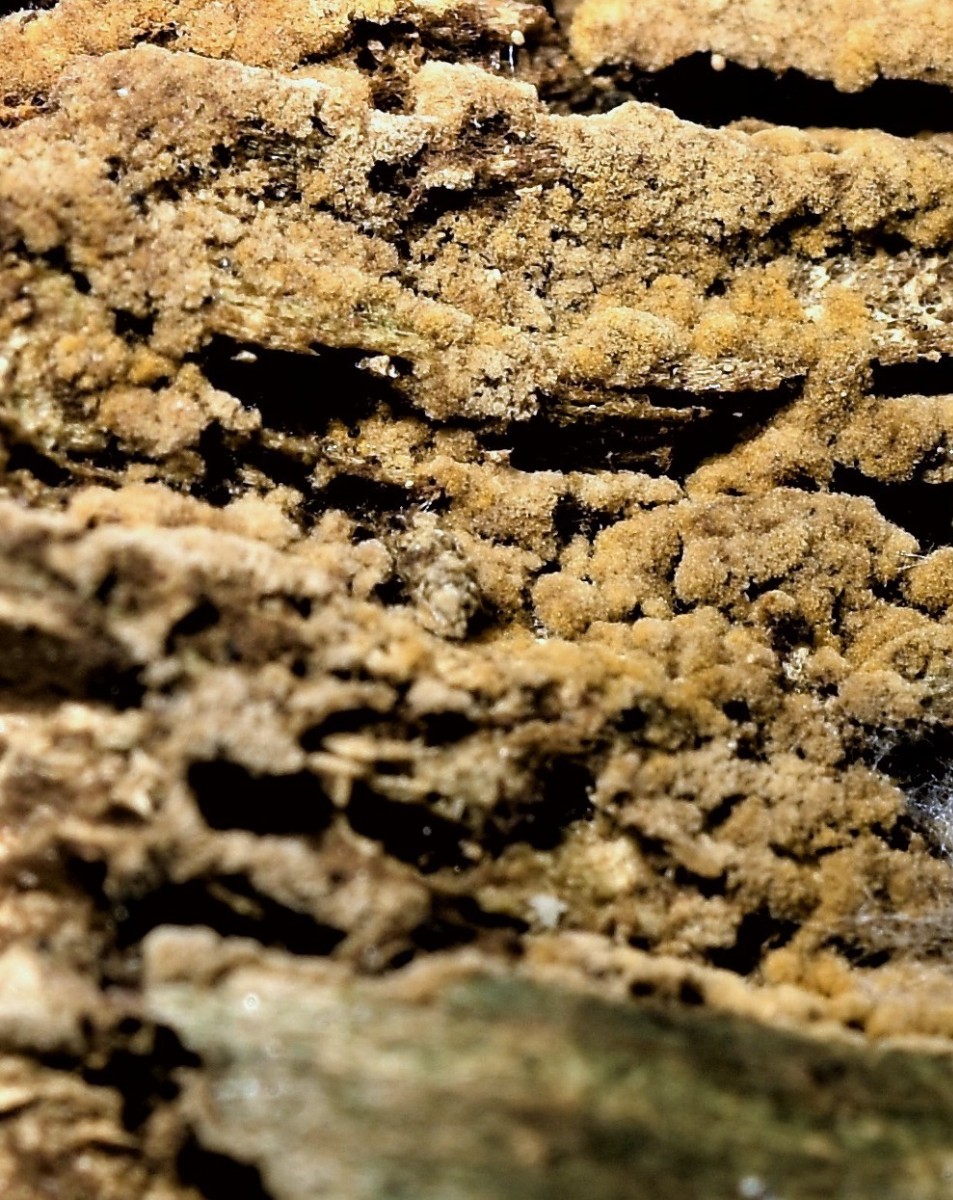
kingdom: Fungi
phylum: Basidiomycota
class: Agaricomycetes
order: Thelephorales
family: Thelephoraceae
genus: Tomentella
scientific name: Tomentella bryophila
